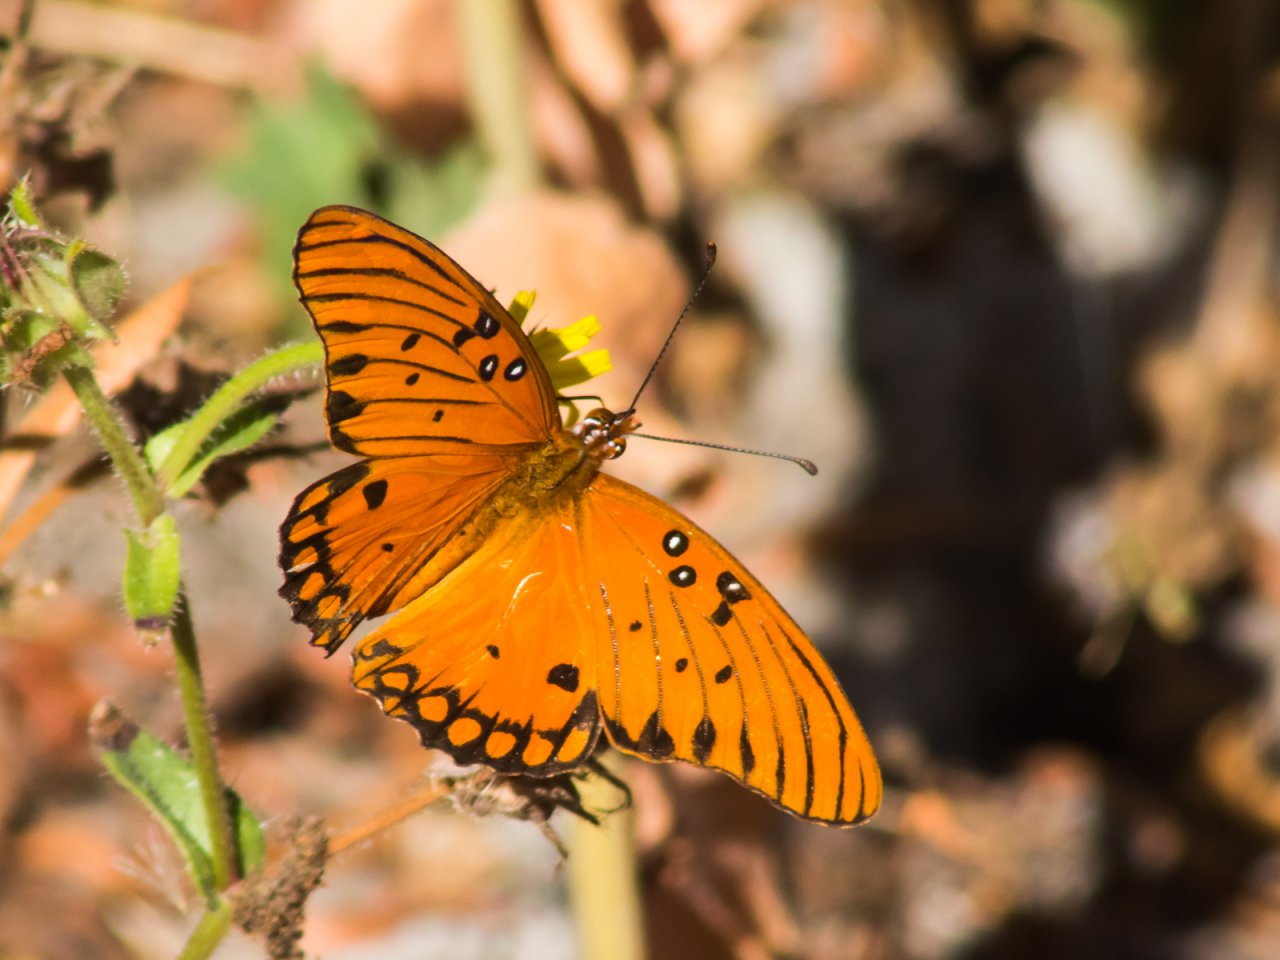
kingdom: Animalia
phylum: Arthropoda
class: Insecta
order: Lepidoptera
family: Nymphalidae
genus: Dione
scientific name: Dione vanillae
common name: Gulf Fritillary
